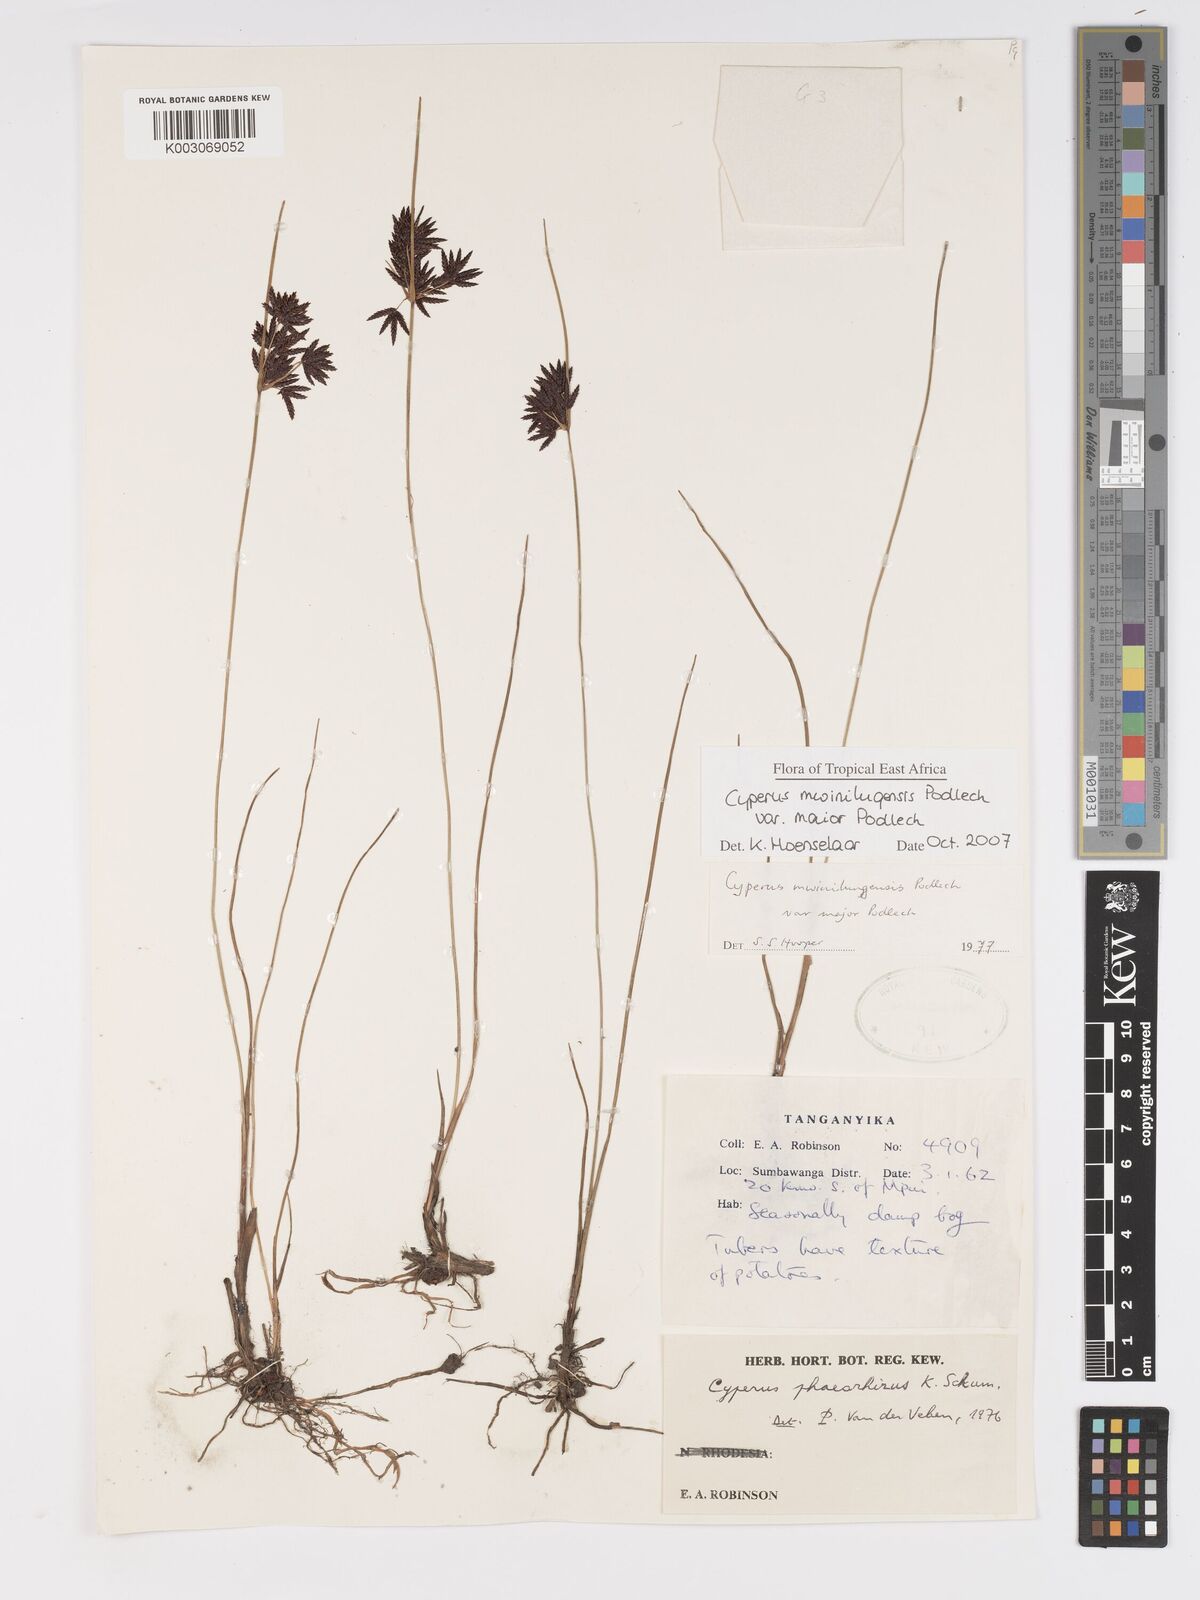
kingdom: Plantae
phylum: Tracheophyta
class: Liliopsida
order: Poales
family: Cyperaceae
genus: Cyperus
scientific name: Cyperus mwinilungensis
